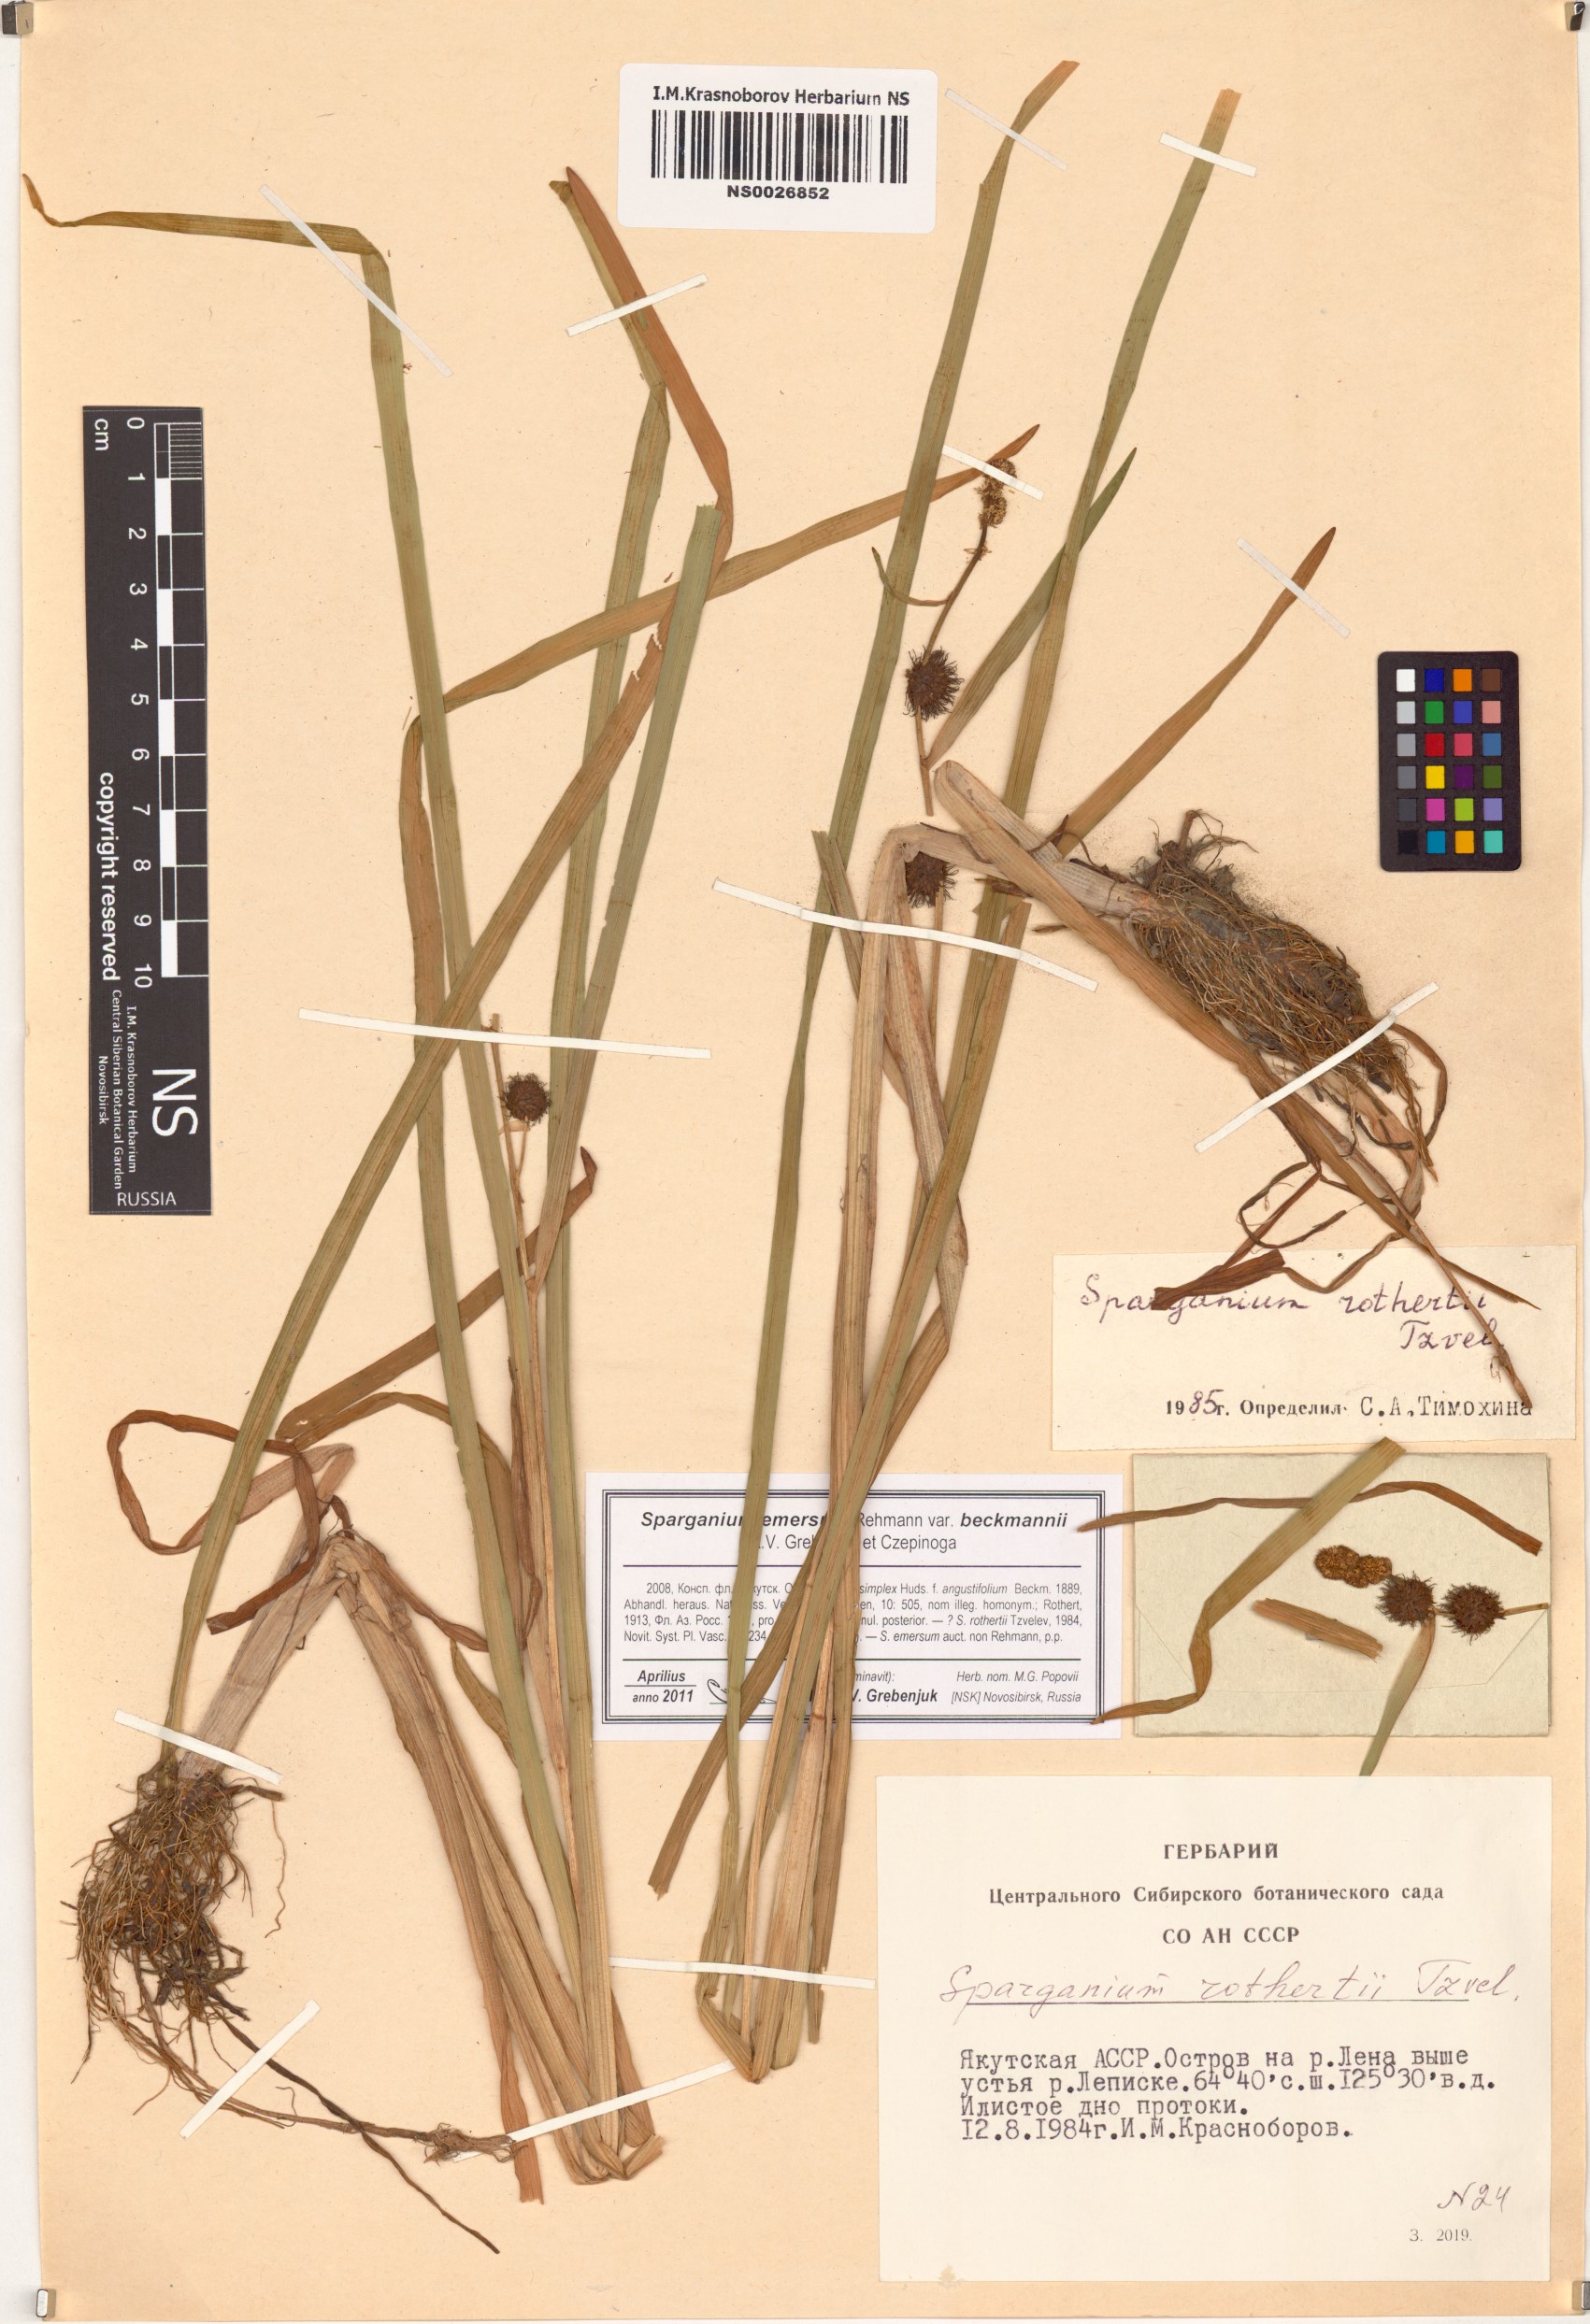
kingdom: Plantae
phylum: Tracheophyta
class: Liliopsida
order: Poales
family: Typhaceae
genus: Sparganium
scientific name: Sparganium emersum
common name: Unbranched bur-reed
